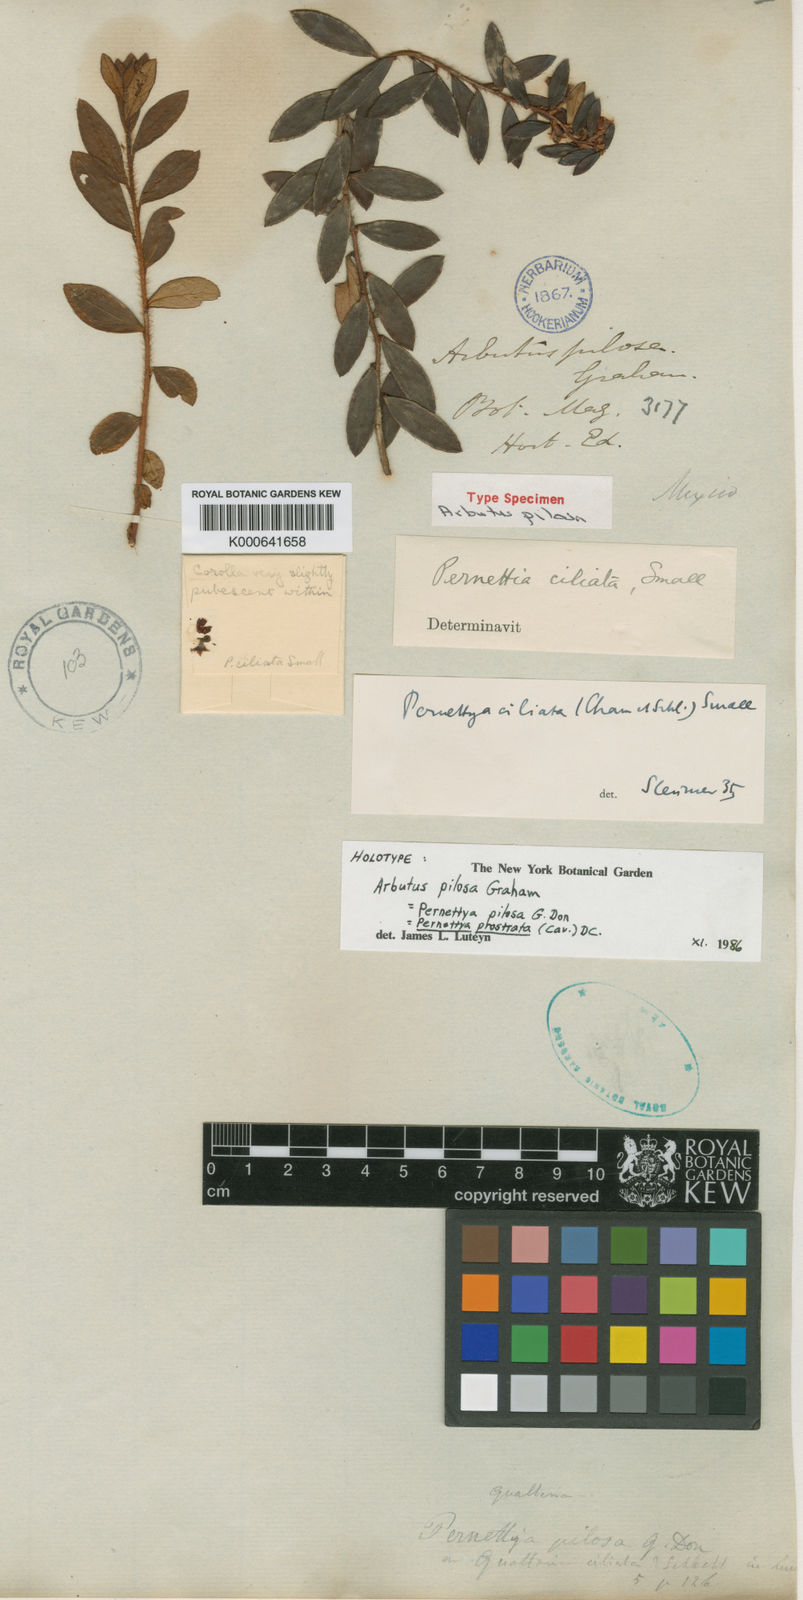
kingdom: Plantae
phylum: Tracheophyta
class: Magnoliopsida
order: Ericales
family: Ericaceae
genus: Gaultheria
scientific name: Gaultheria myrsinoides
